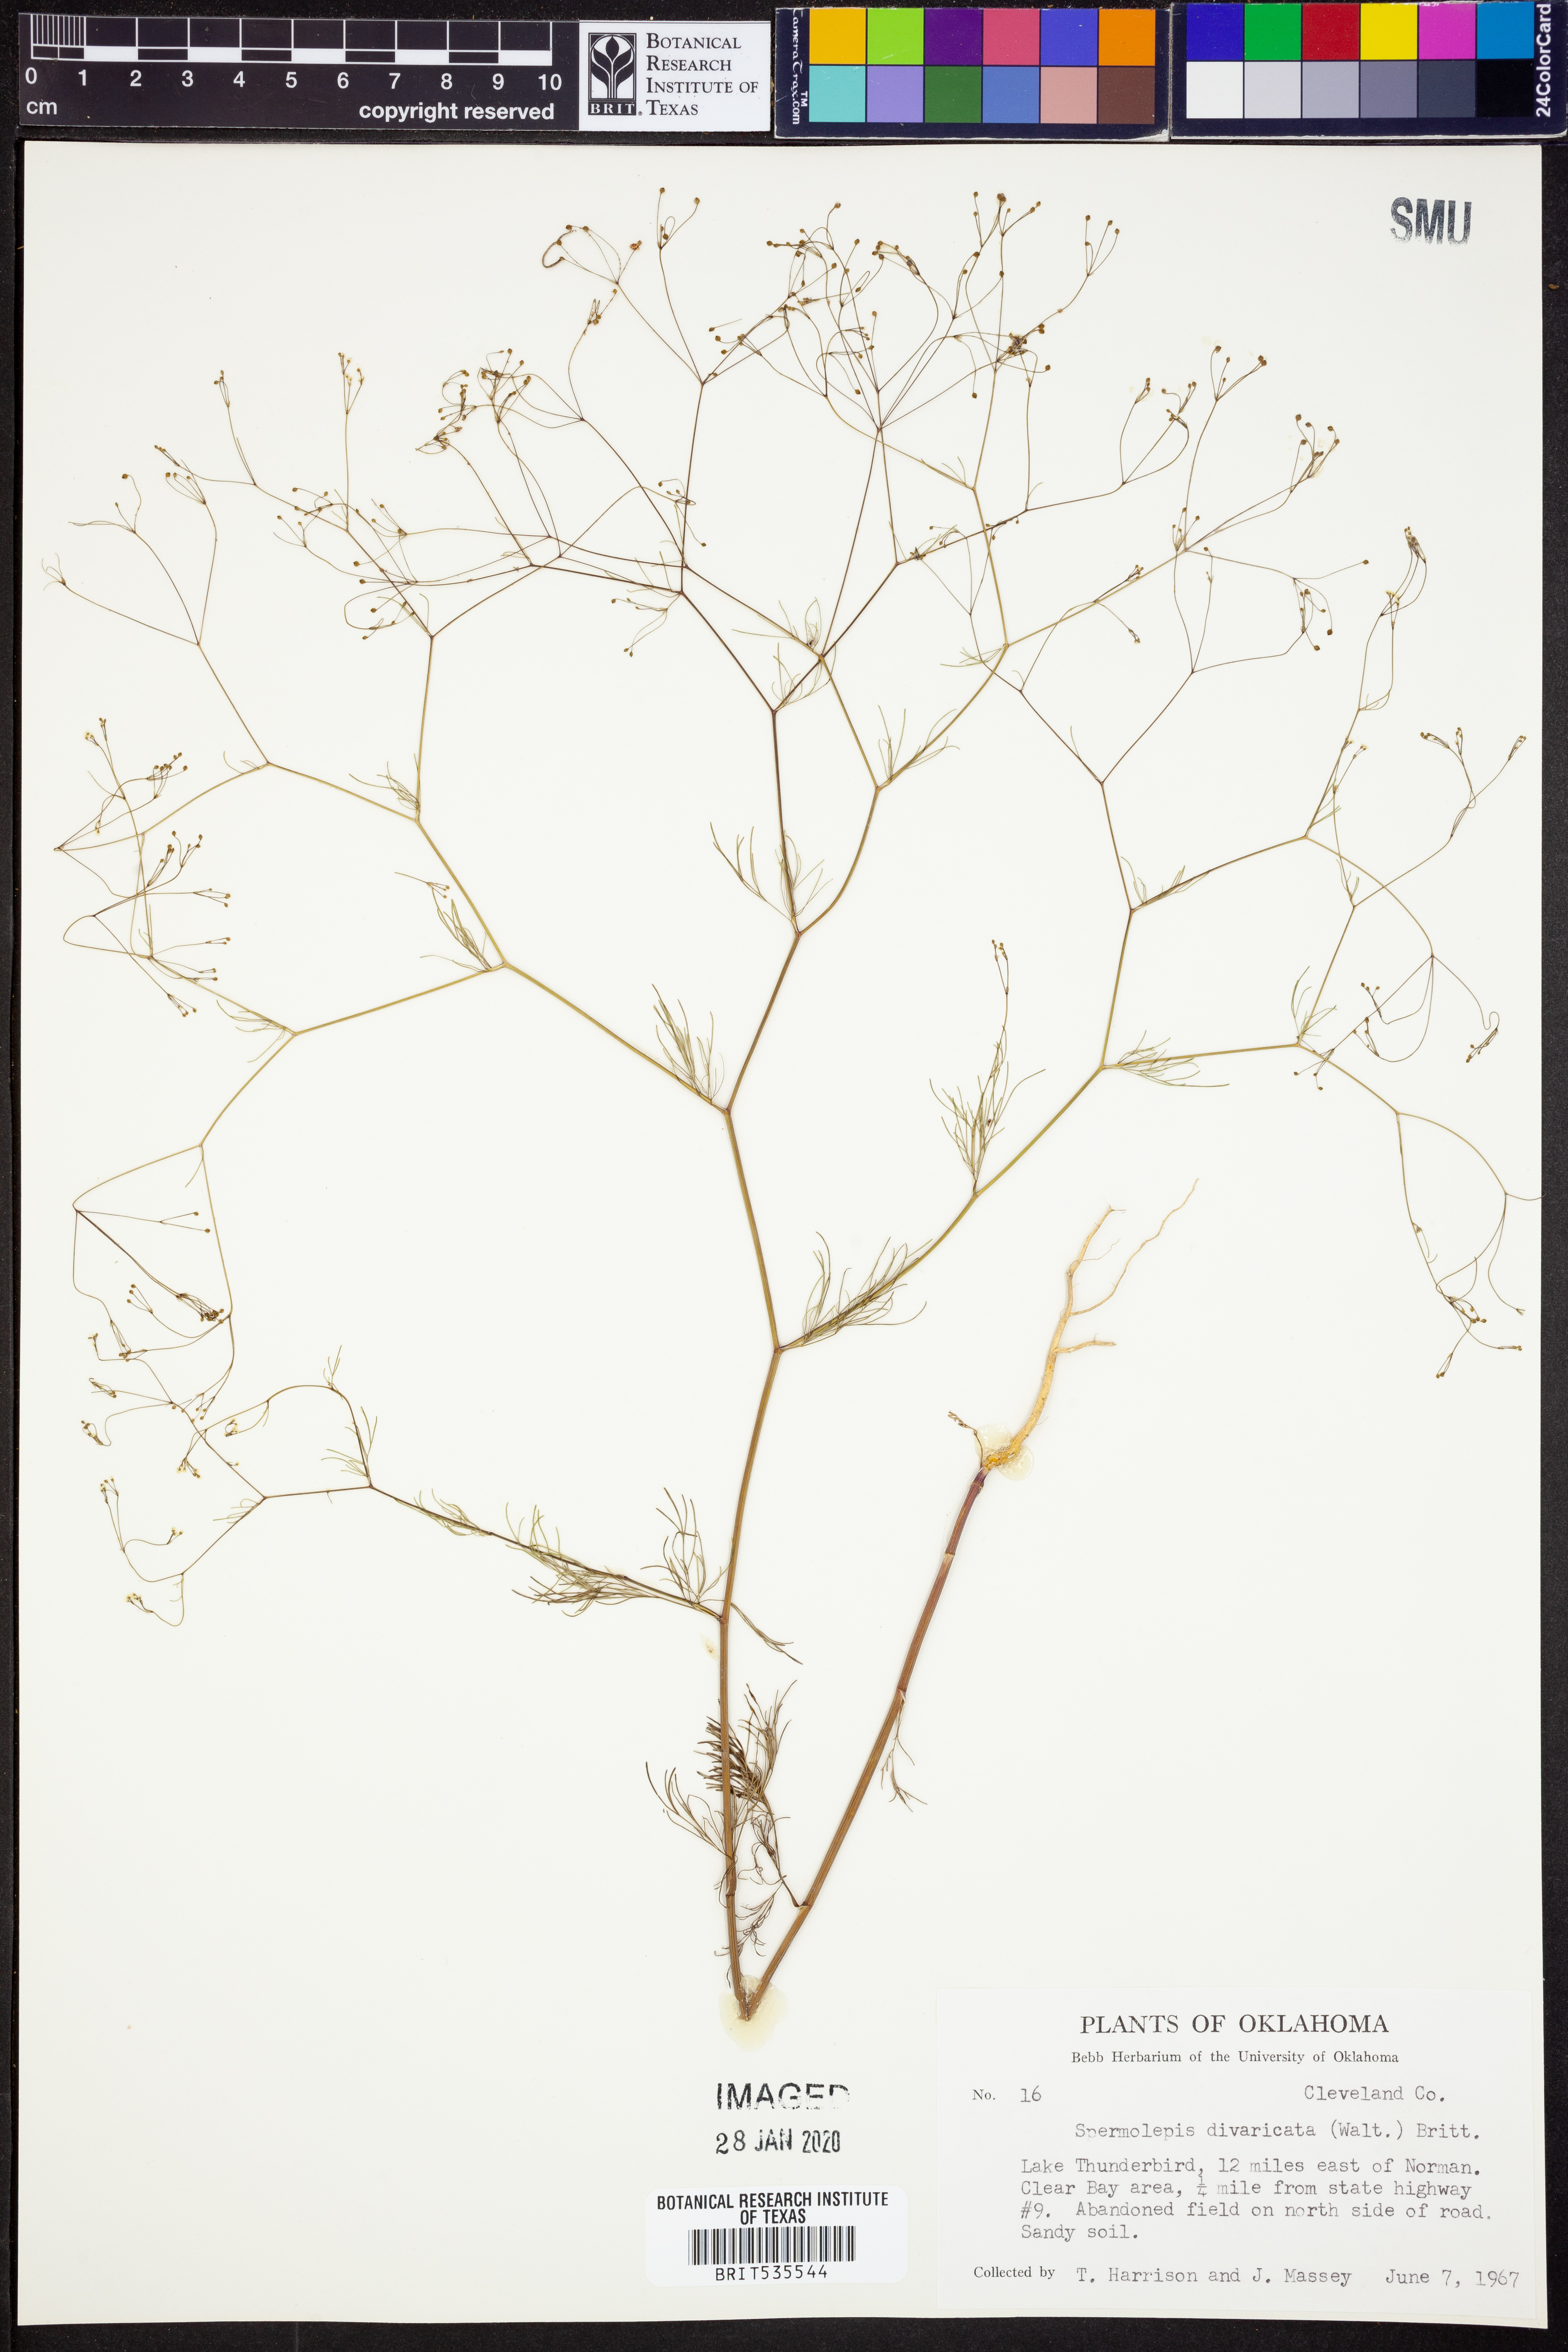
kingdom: Plantae
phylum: Tracheophyta
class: Magnoliopsida
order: Apiales
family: Apiaceae
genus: Spermolepis
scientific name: Spermolepis divaricata
